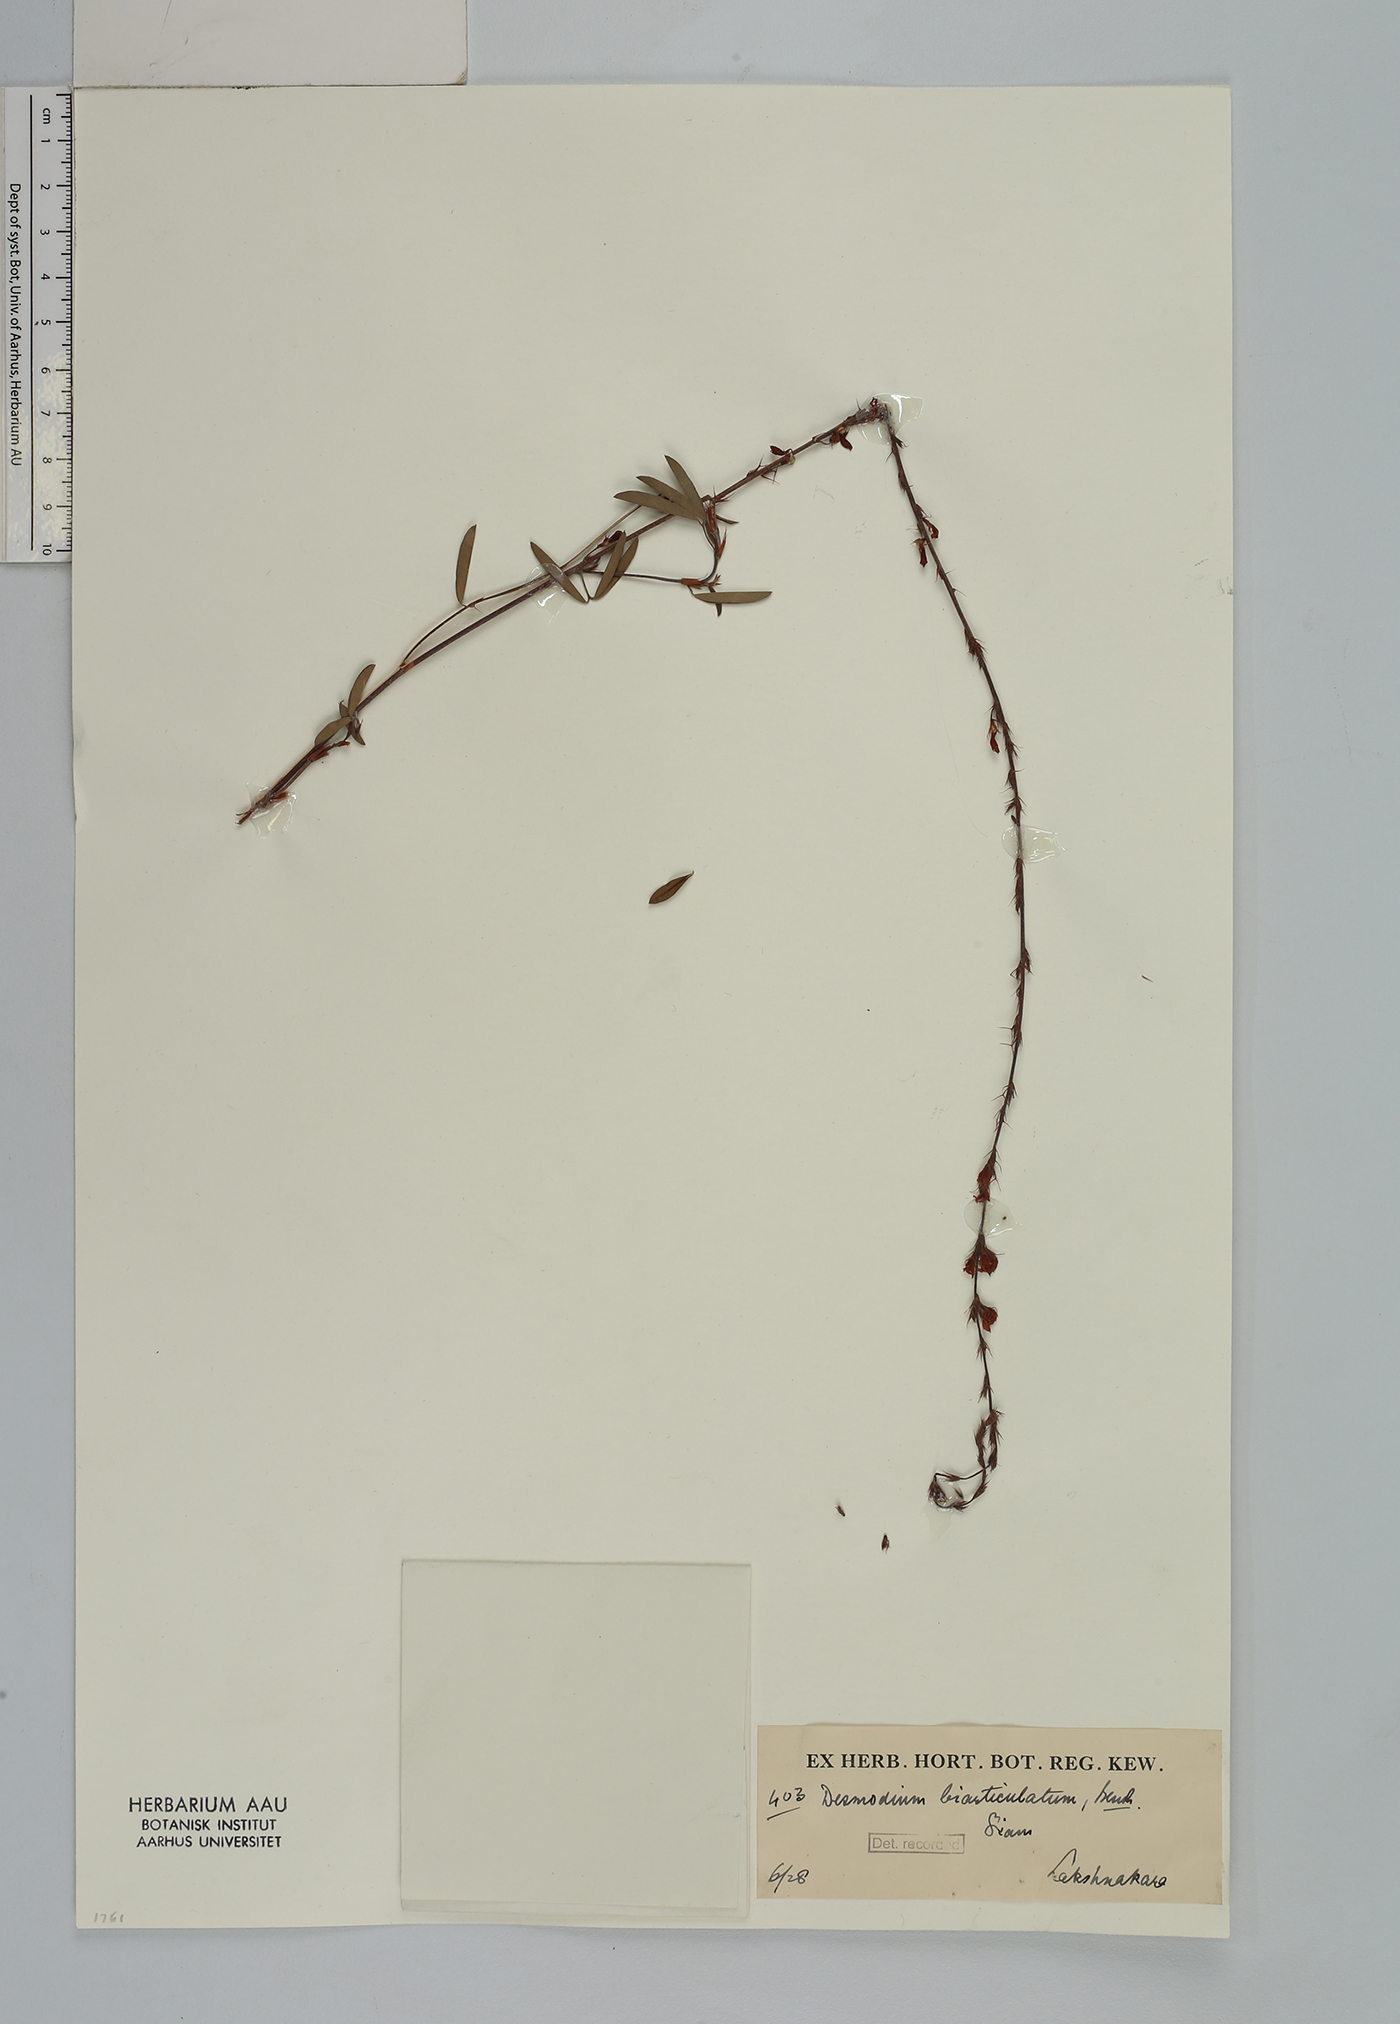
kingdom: Plantae
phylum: Tracheophyta
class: Magnoliopsida
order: Fabales
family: Fabaceae
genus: Aphyllodium
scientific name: Aphyllodium biarticulatum
